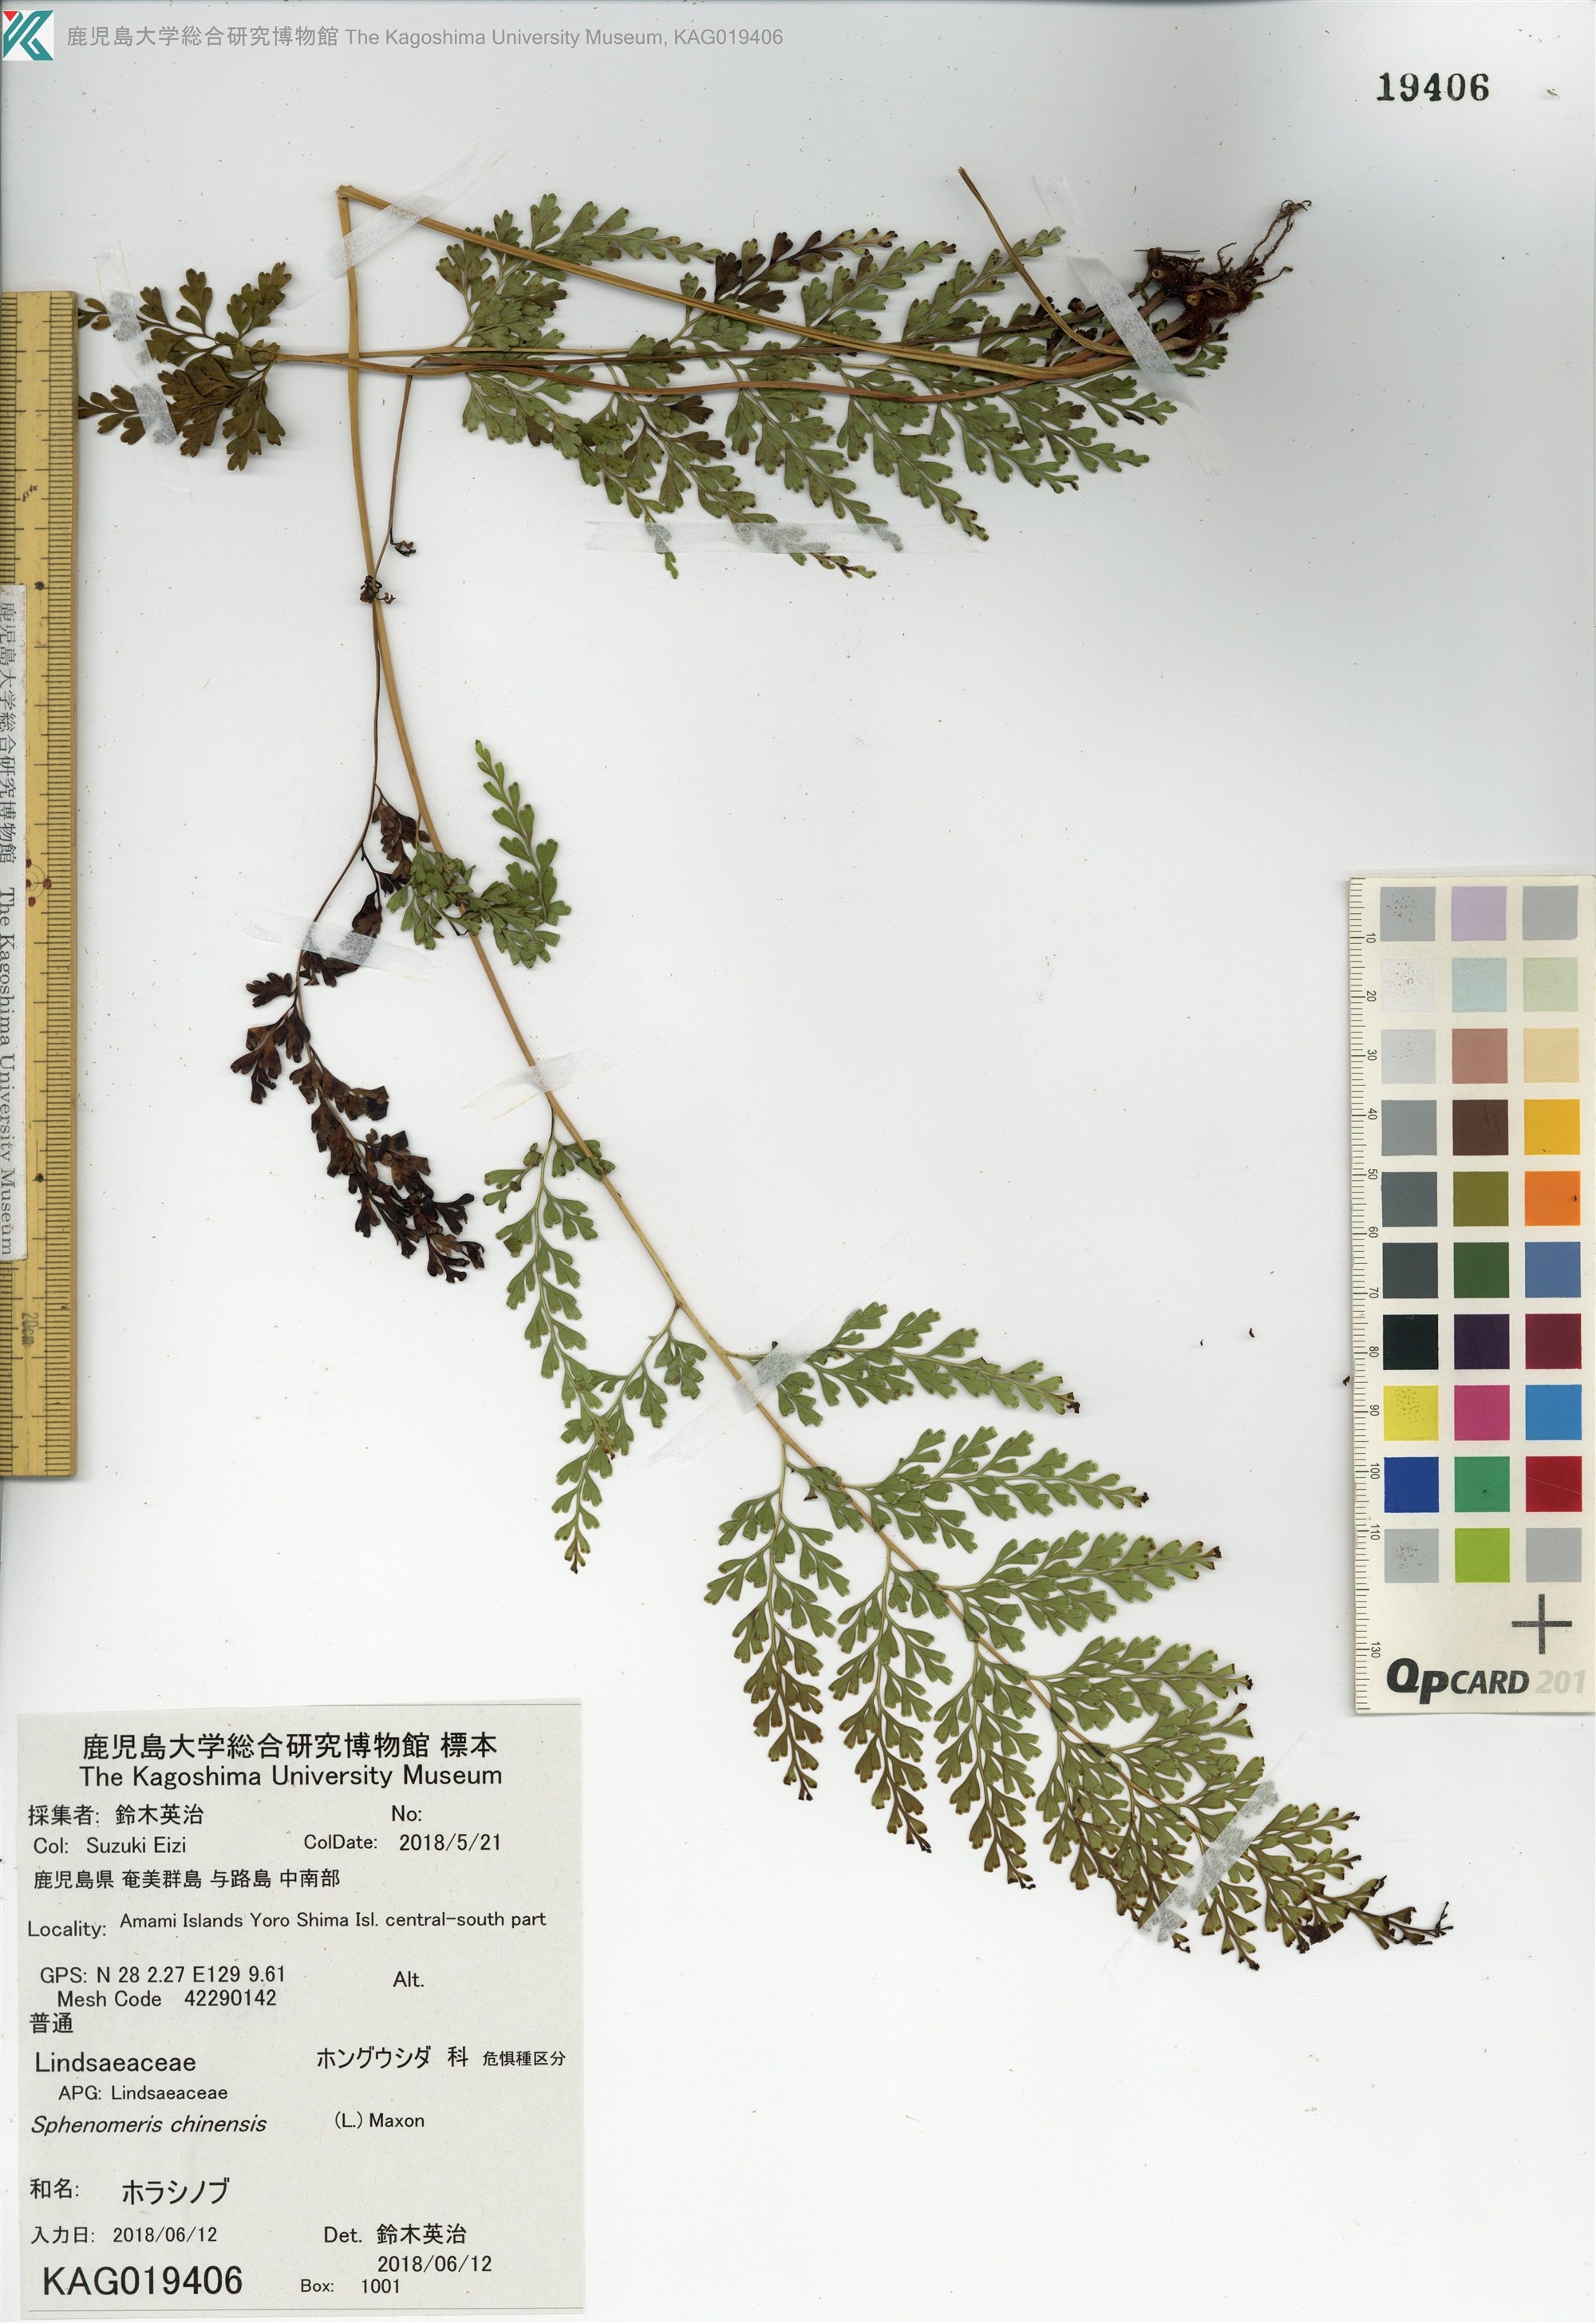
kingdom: Plantae
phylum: Tracheophyta
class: Polypodiopsida
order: Polypodiales
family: Lindsaeaceae
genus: Odontosoria
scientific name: Odontosoria chinensis
